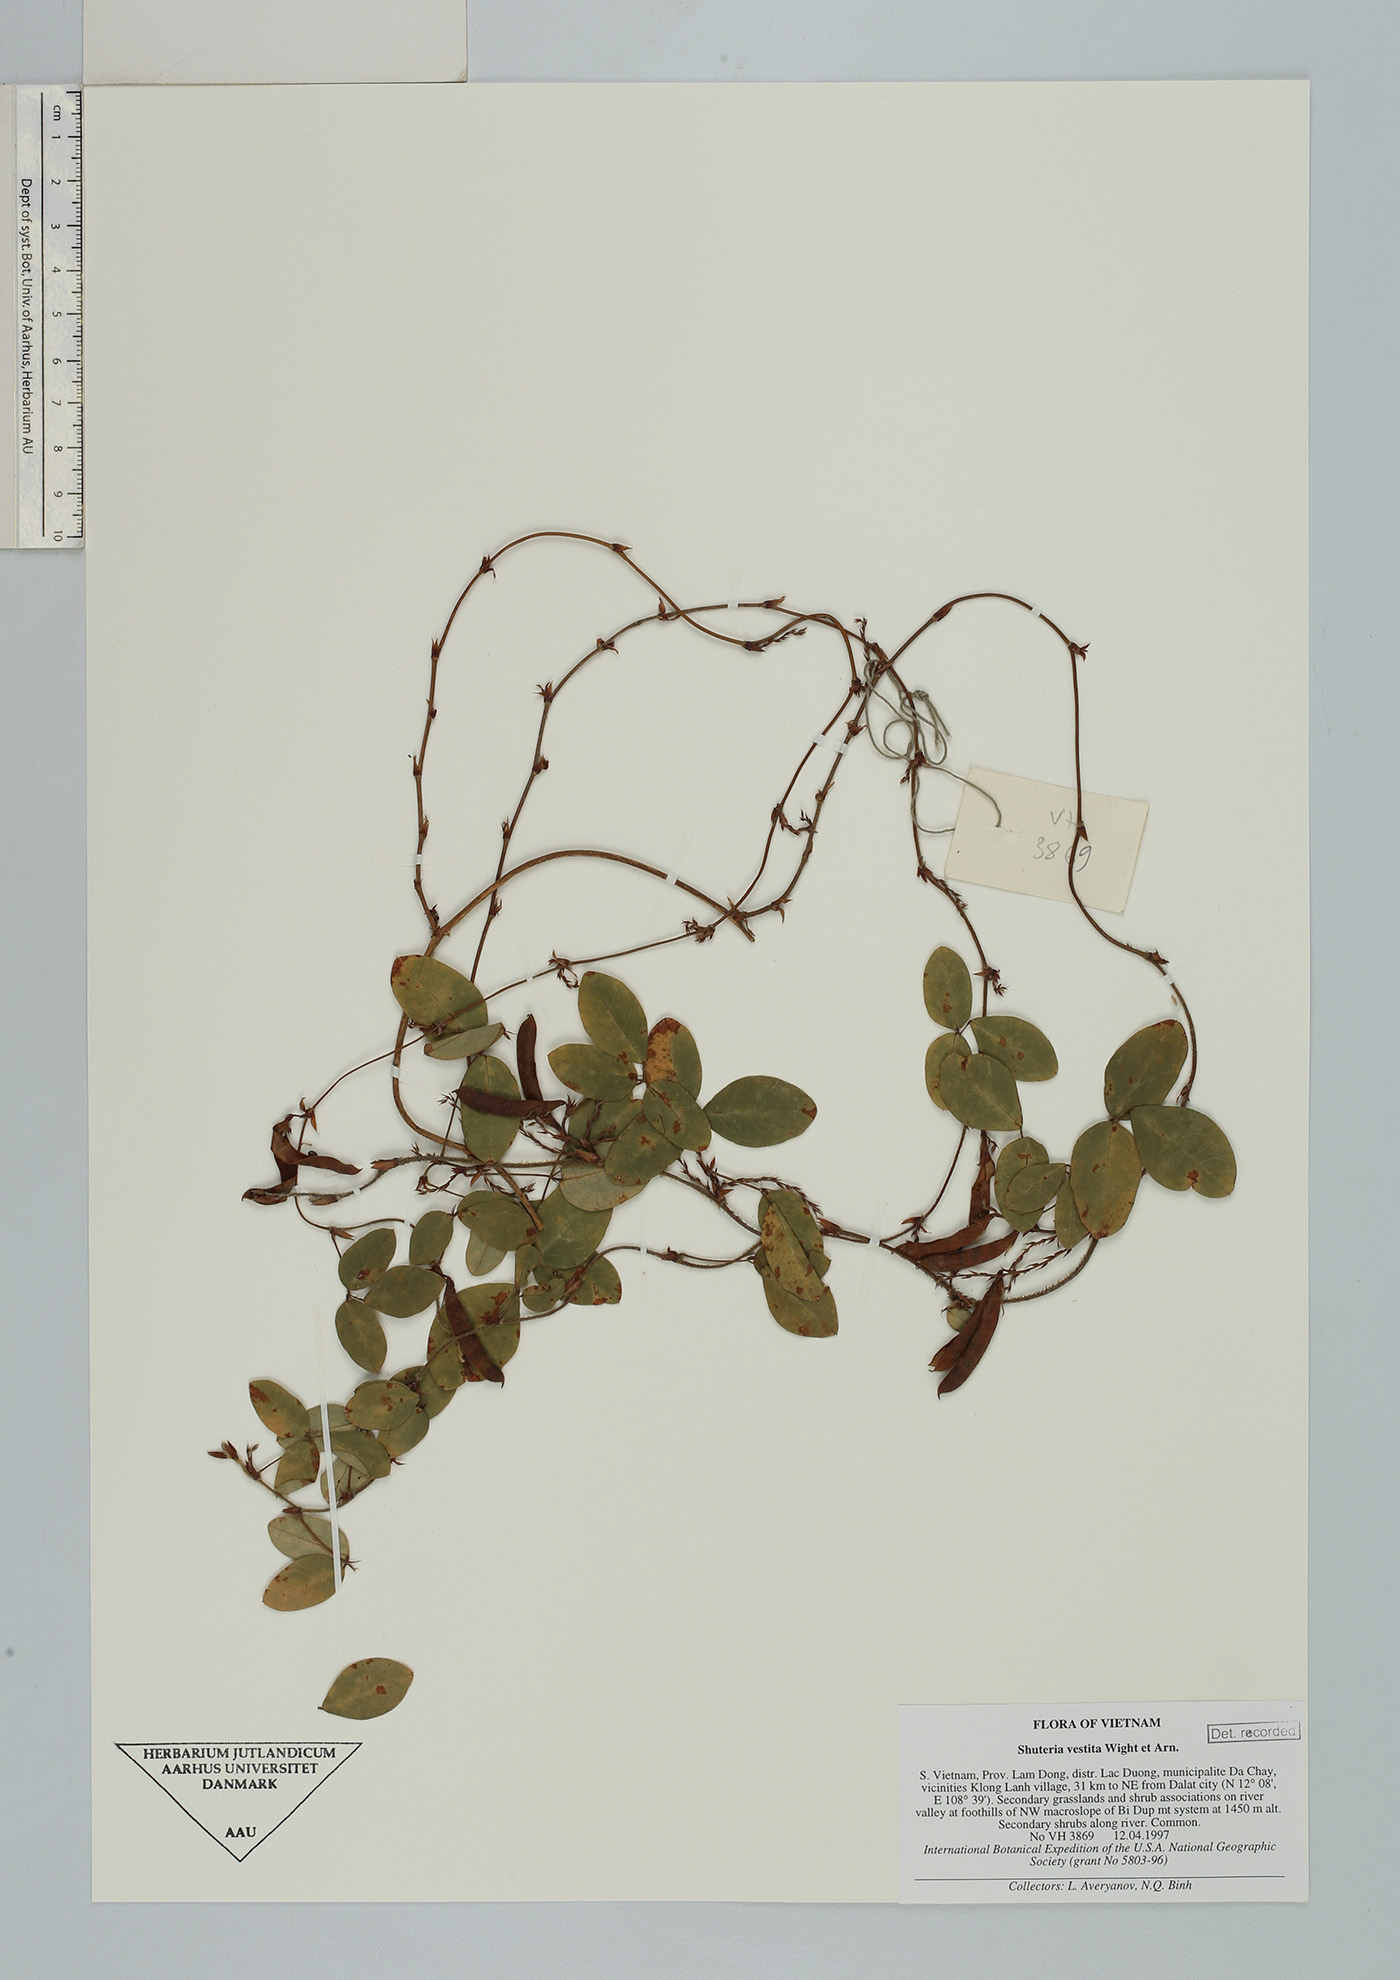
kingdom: Plantae
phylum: Tracheophyta
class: Magnoliopsida
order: Fabales
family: Fabaceae
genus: Shuteria
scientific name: Shuteria vestita
